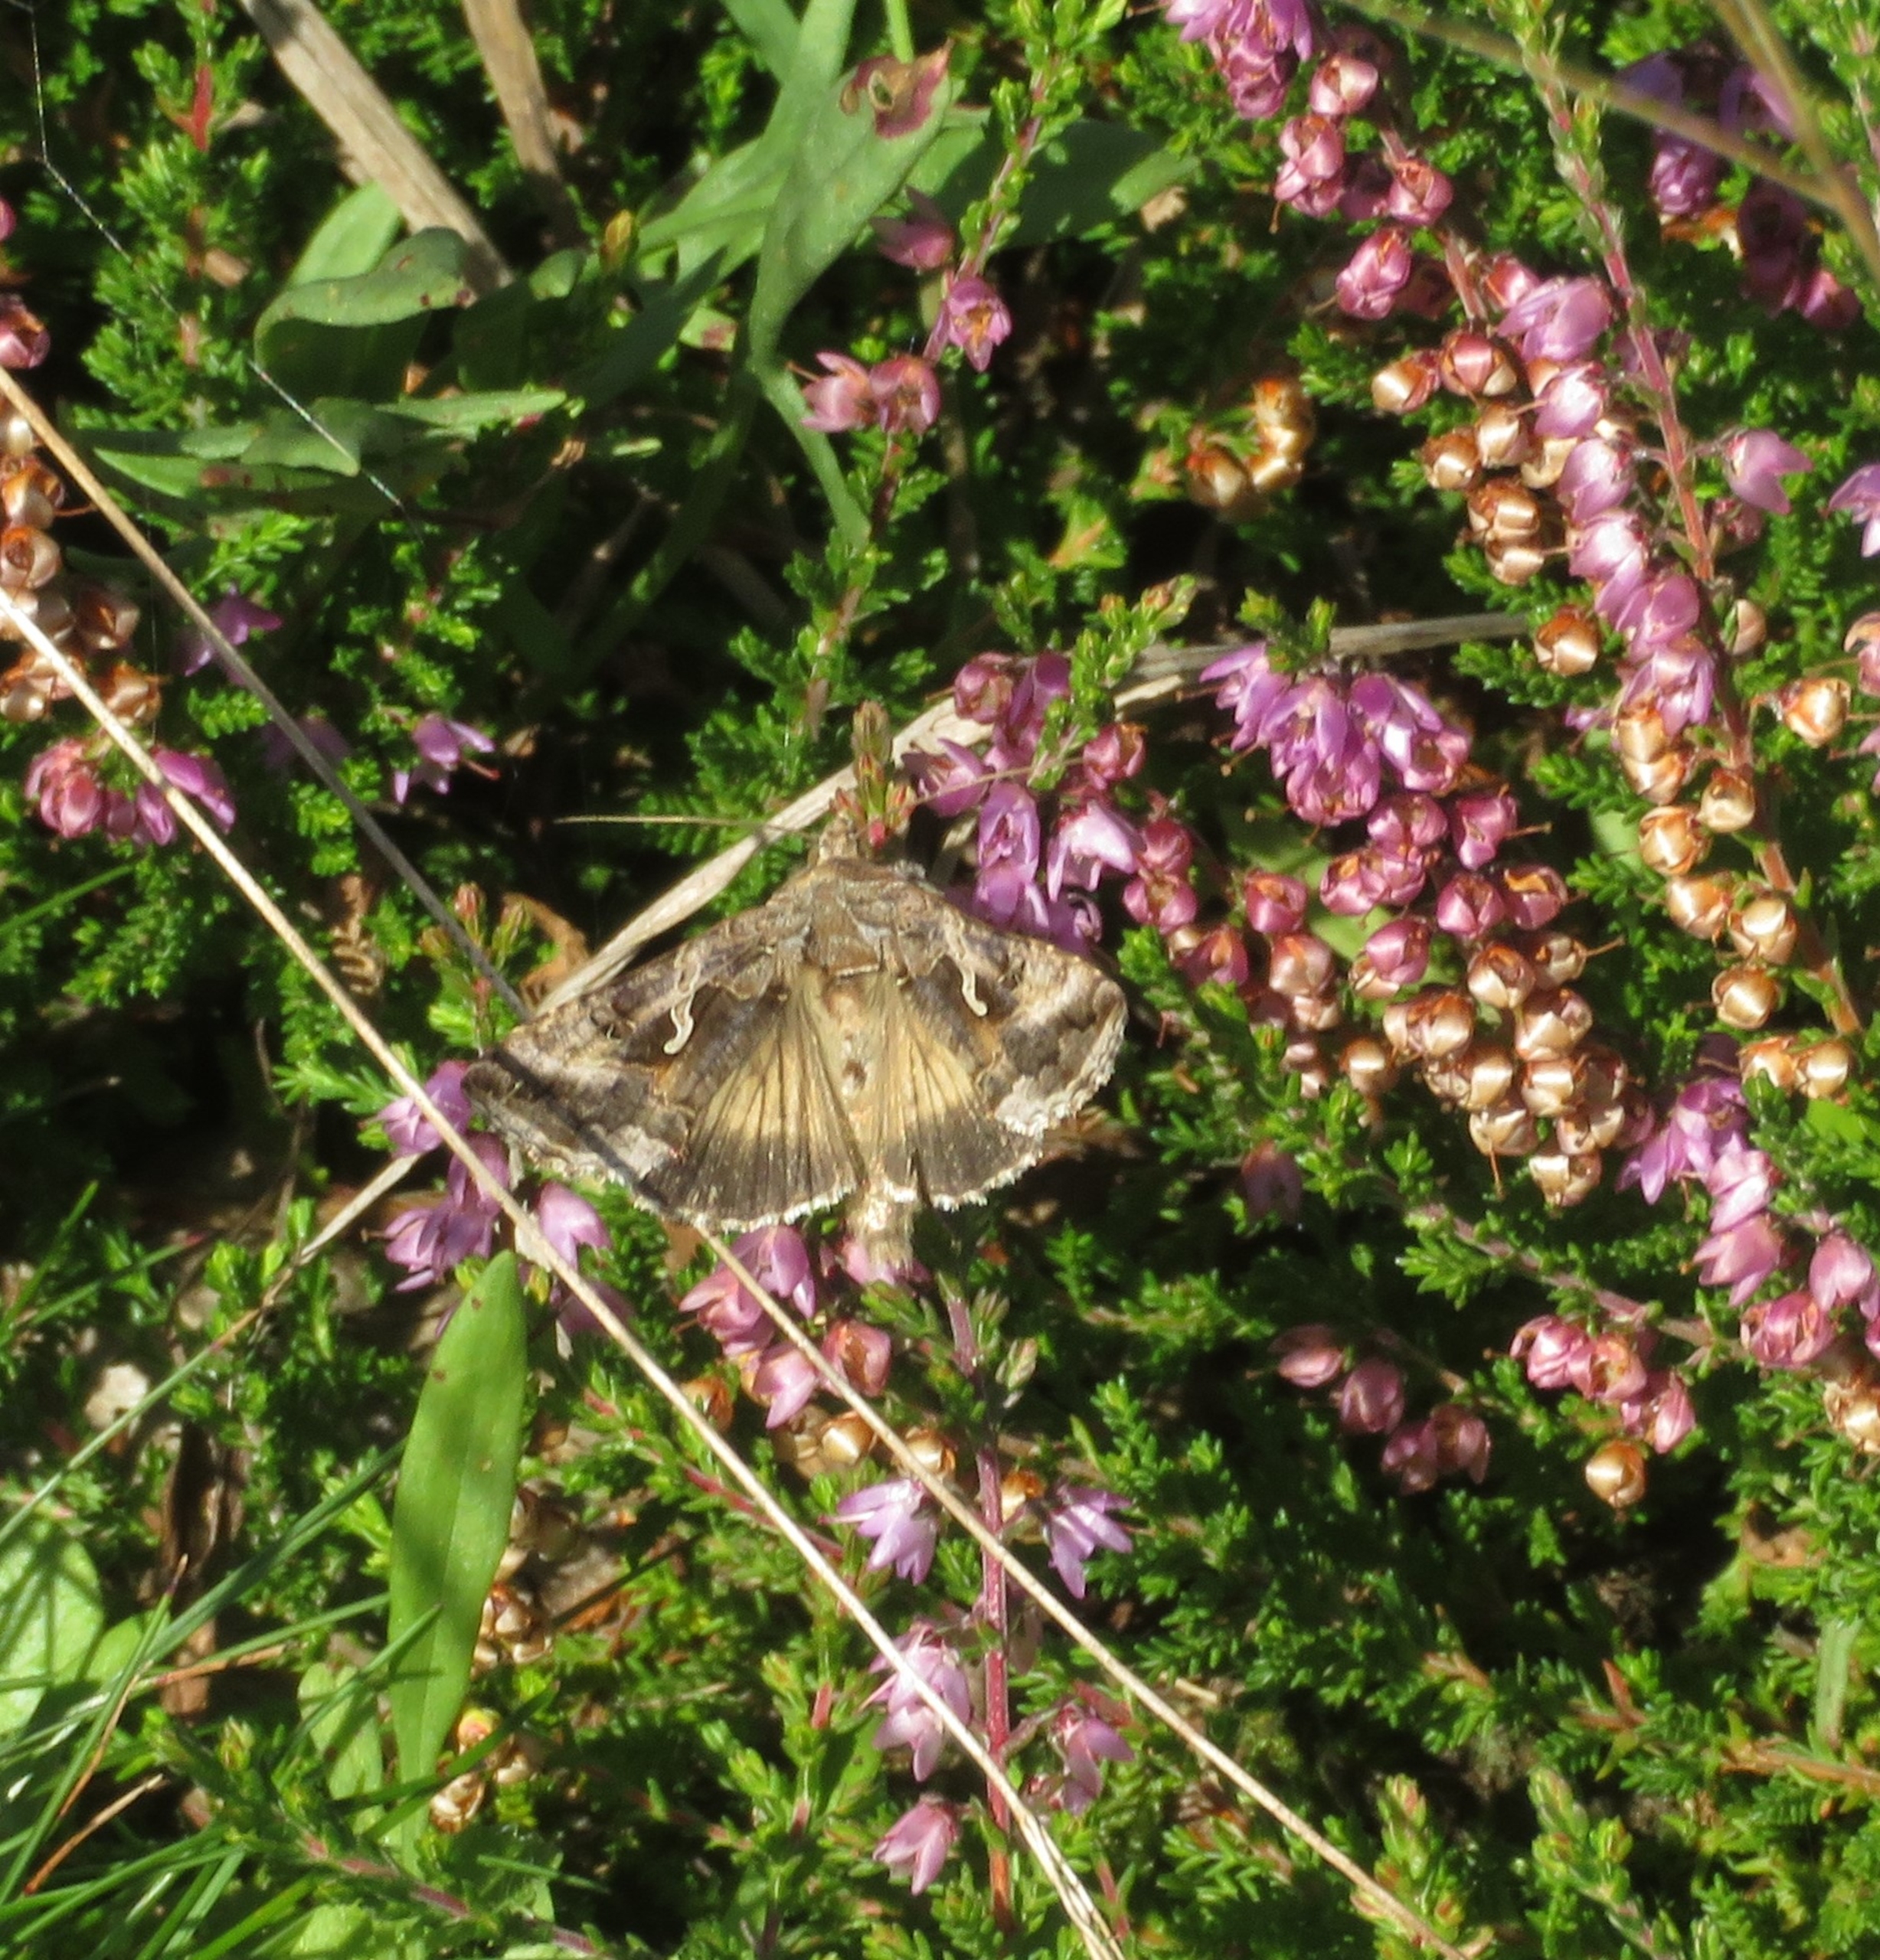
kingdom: Animalia
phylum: Arthropoda
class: Insecta
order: Lepidoptera
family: Noctuidae
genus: Autographa
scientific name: Autographa gamma
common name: Gammaugle
